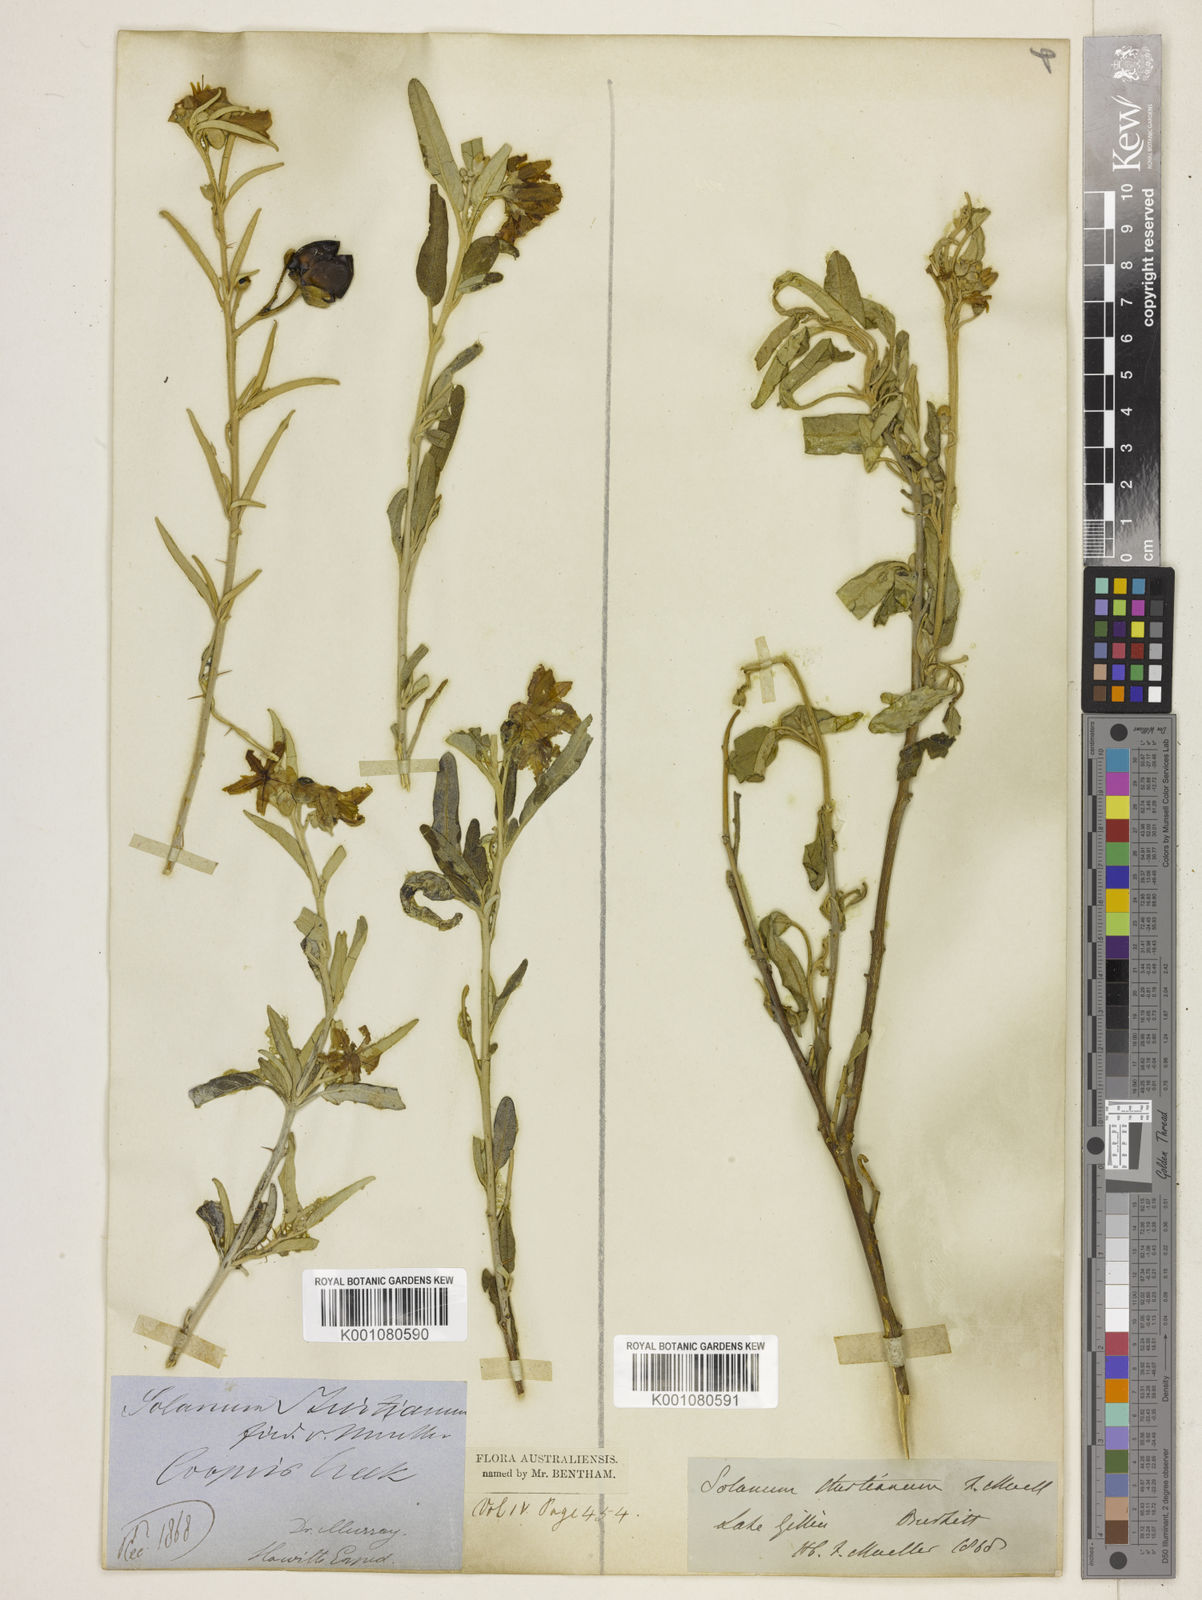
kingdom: Plantae
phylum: Tracheophyta
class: Magnoliopsida
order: Solanales
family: Solanaceae
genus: Solanum
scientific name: Solanum sturtianum
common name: Thargomindah nightshade
